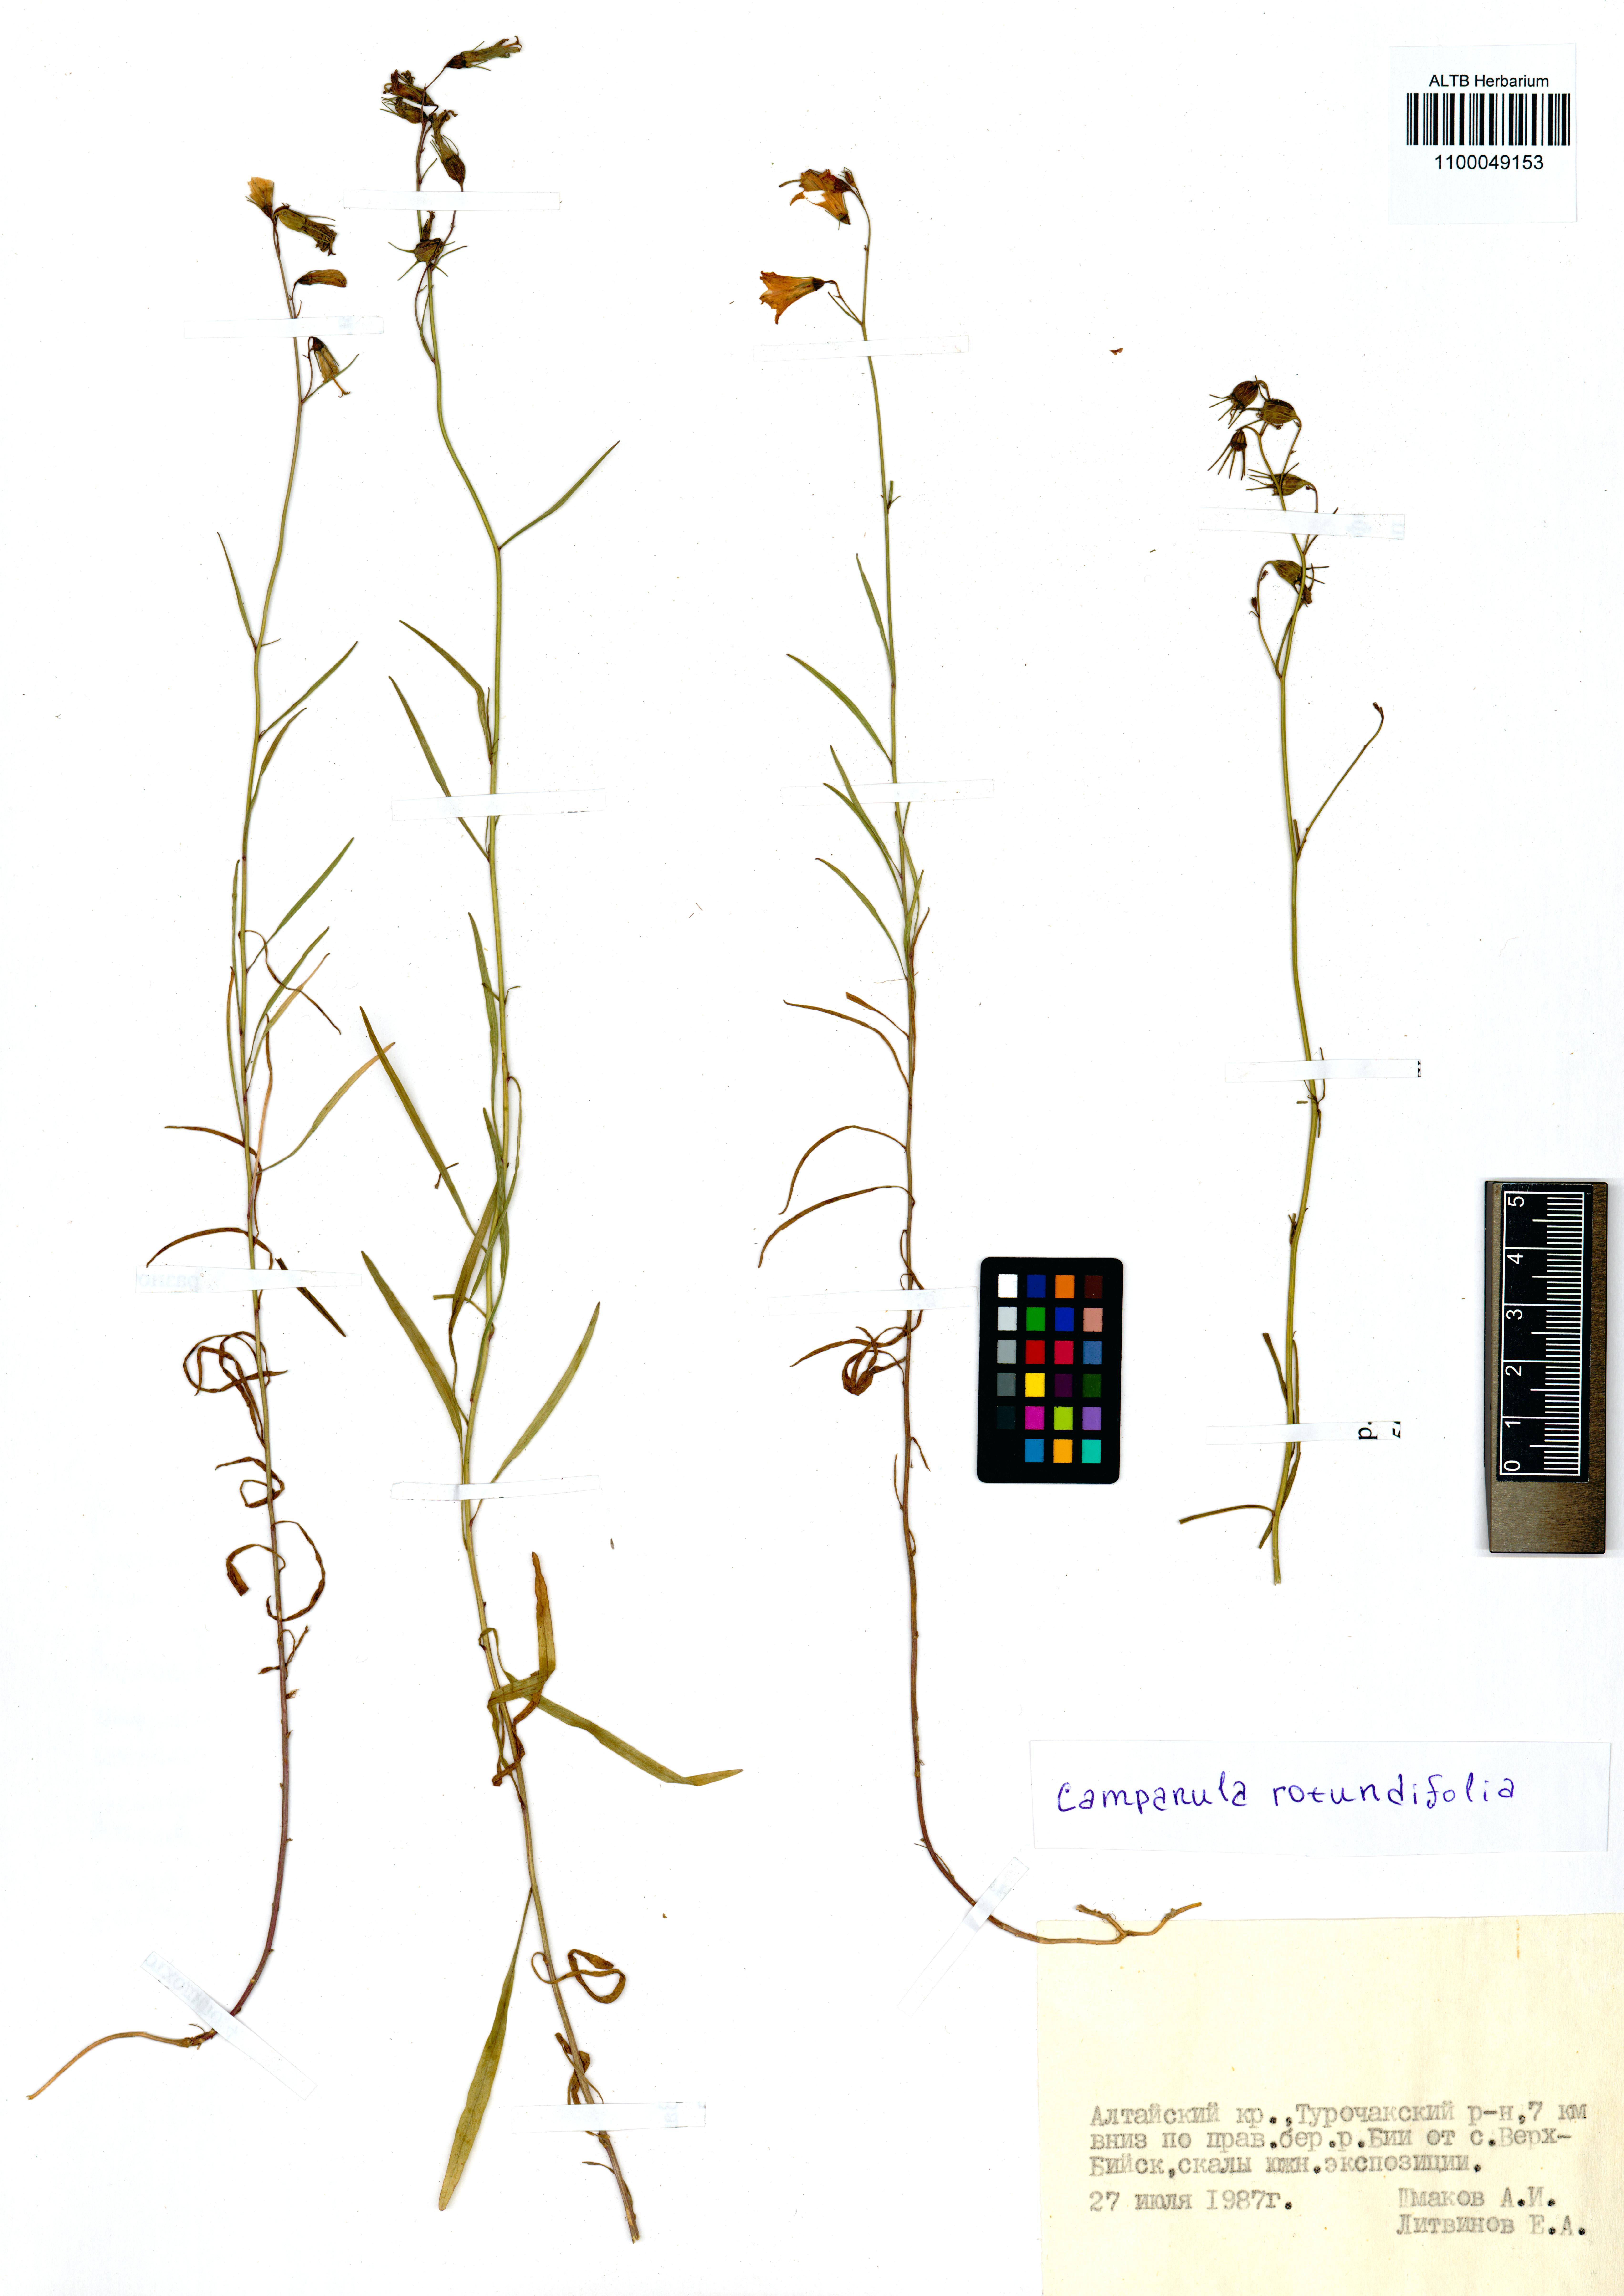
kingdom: Plantae
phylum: Tracheophyta
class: Magnoliopsida
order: Asterales
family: Campanulaceae
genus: Campanula
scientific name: Campanula rotundifolia
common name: Harebell
